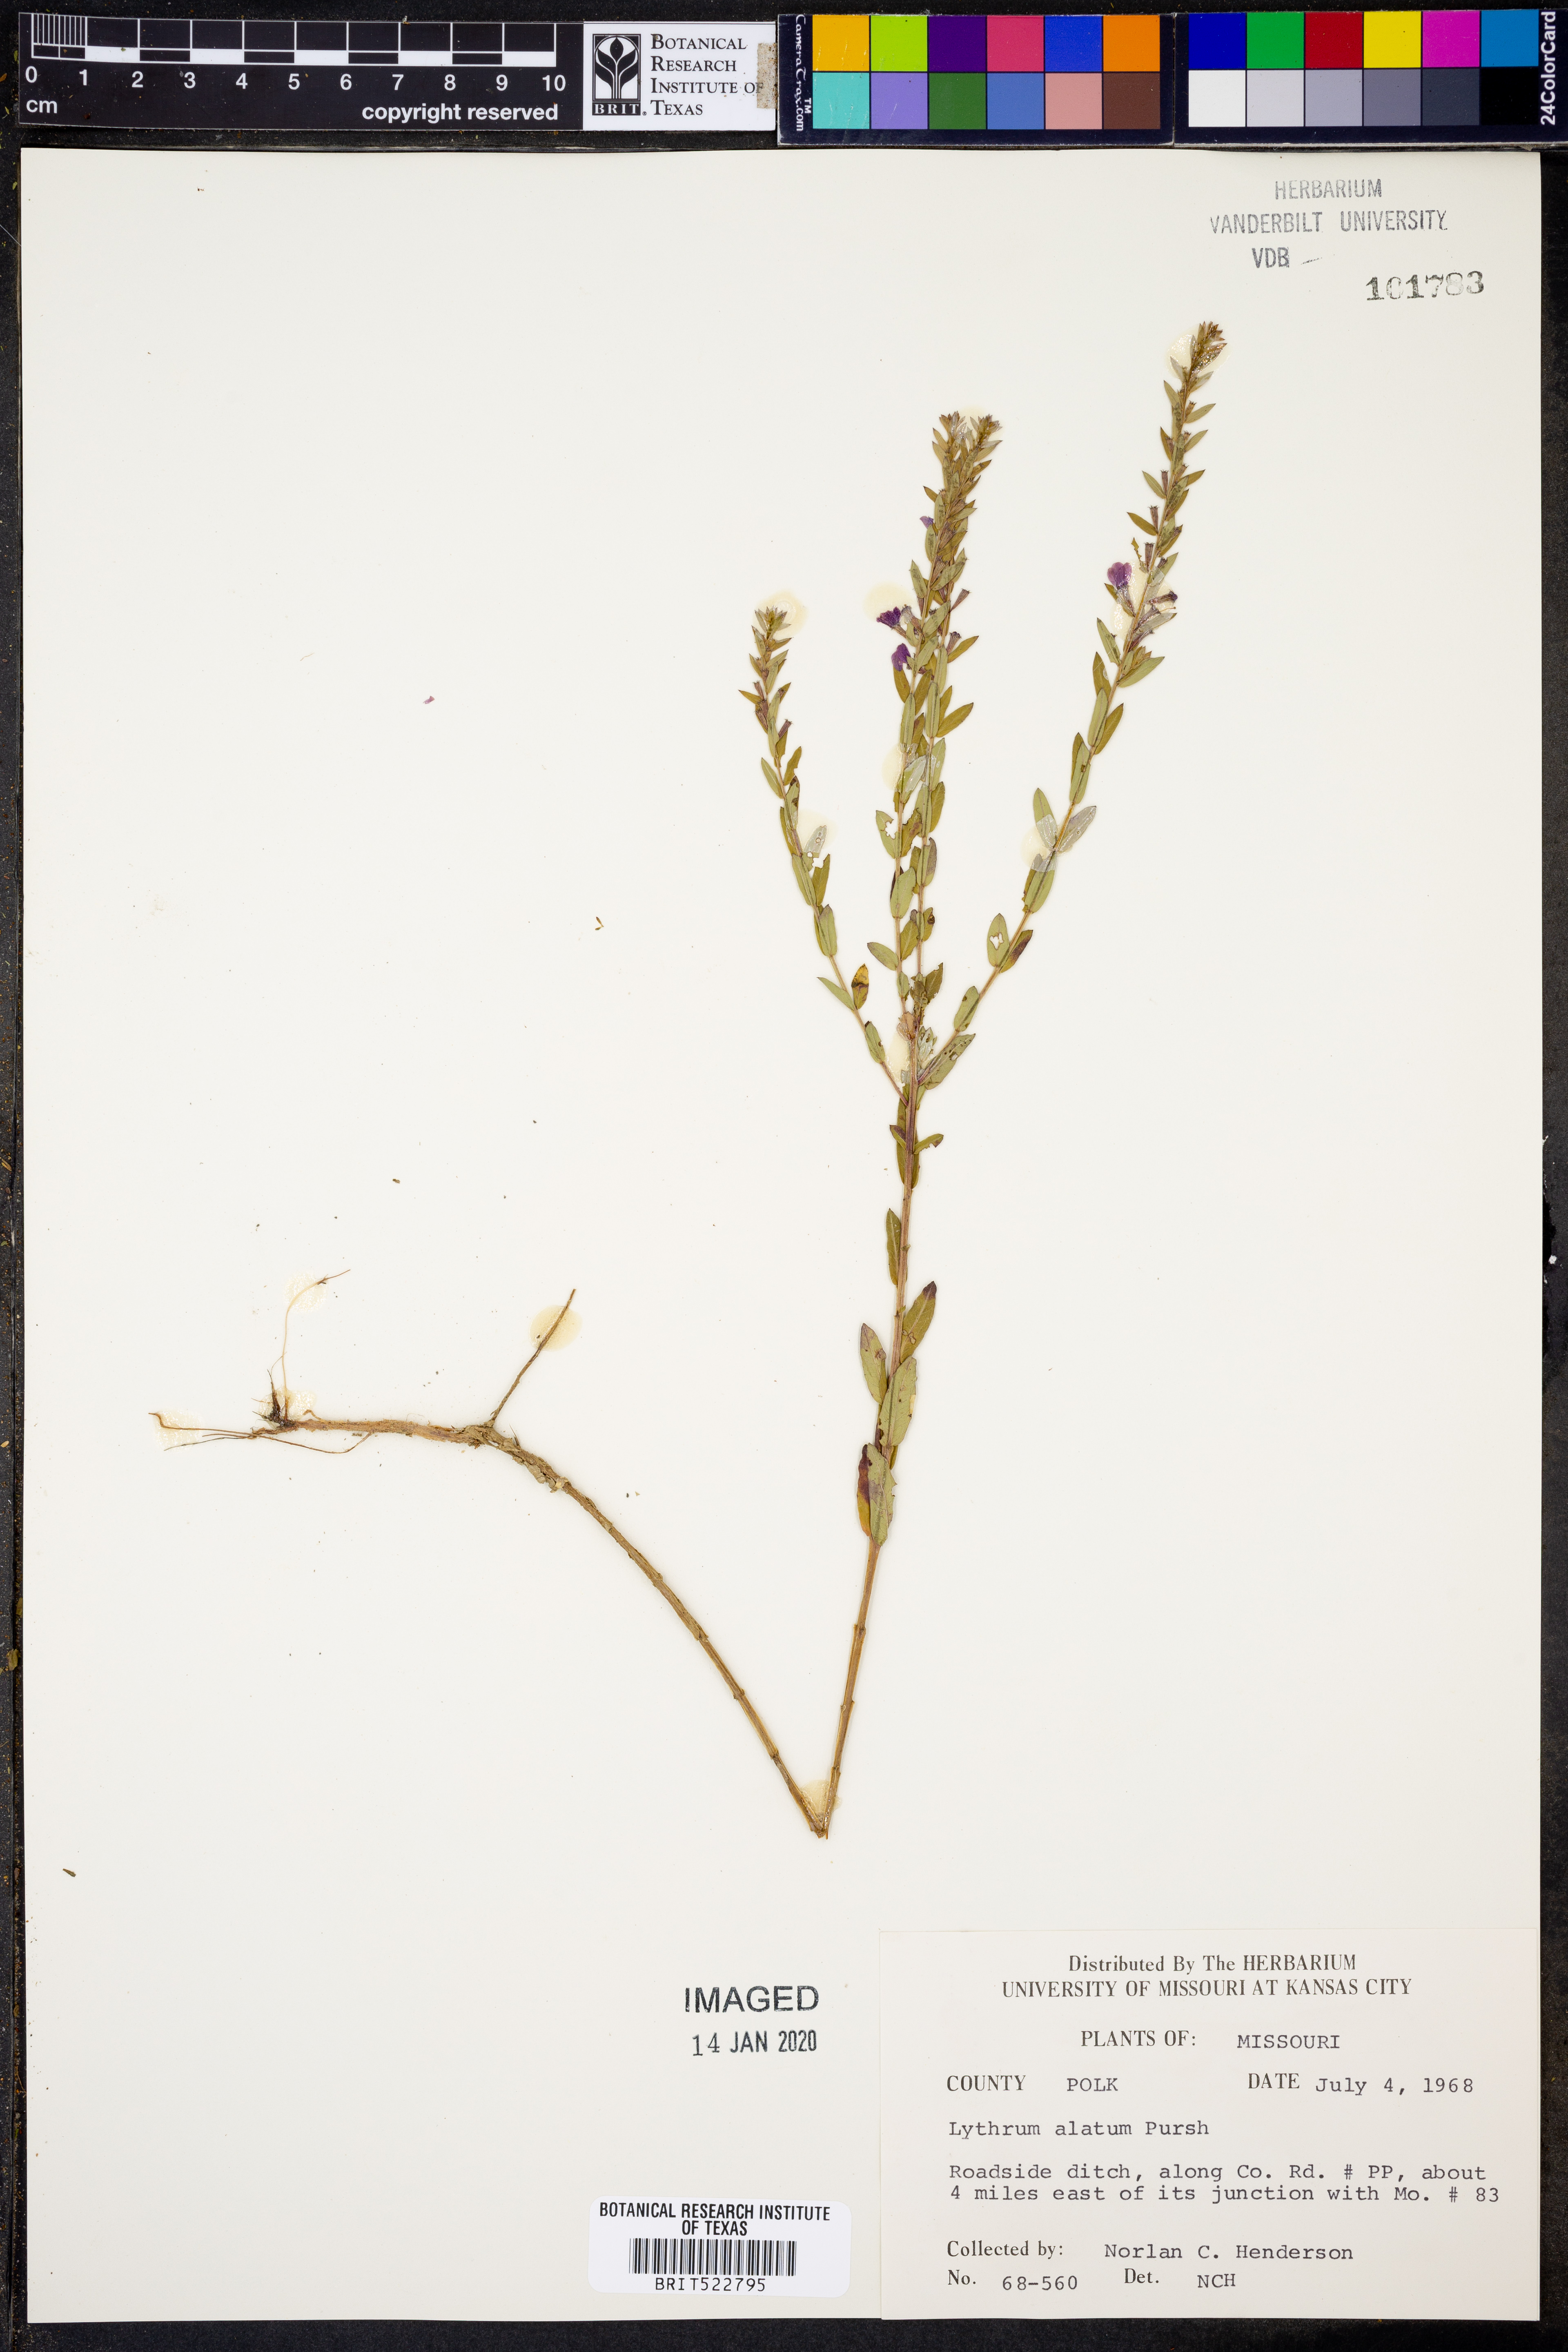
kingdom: Plantae
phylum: Tracheophyta
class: Magnoliopsida
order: Myrtales
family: Lythraceae
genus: Lythrum
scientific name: Lythrum alatum
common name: Winged loosestrife
